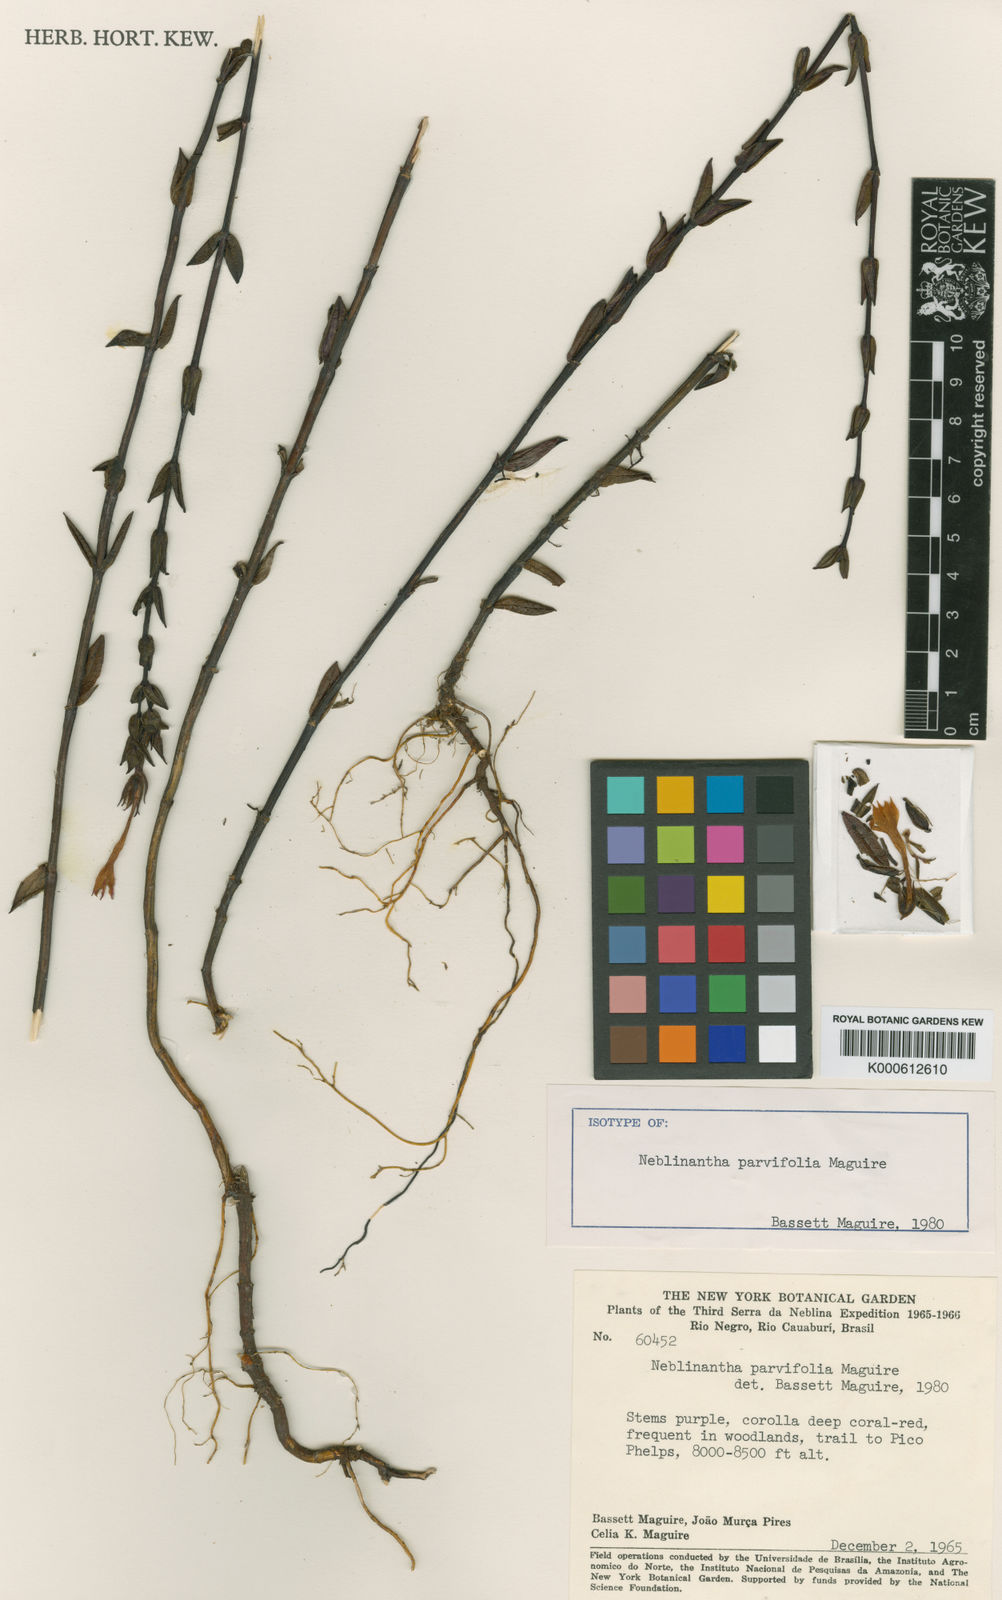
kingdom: Plantae
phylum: Tracheophyta
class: Magnoliopsida
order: Gentianales
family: Gentianaceae
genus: Neblinantha
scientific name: Neblinantha parvifolia
